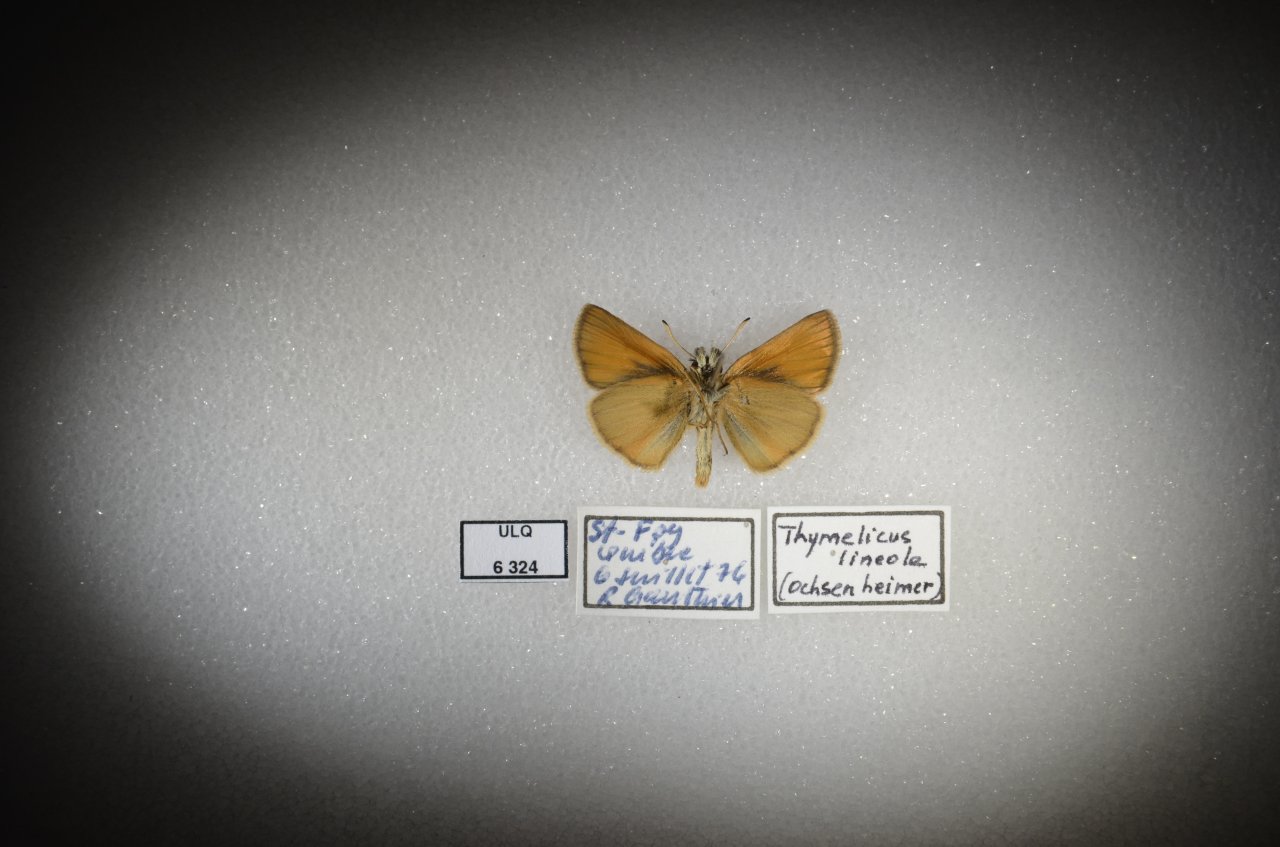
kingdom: Animalia
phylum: Arthropoda
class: Insecta
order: Lepidoptera
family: Hesperiidae
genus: Thymelicus
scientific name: Thymelicus lineola
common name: European Skipper
